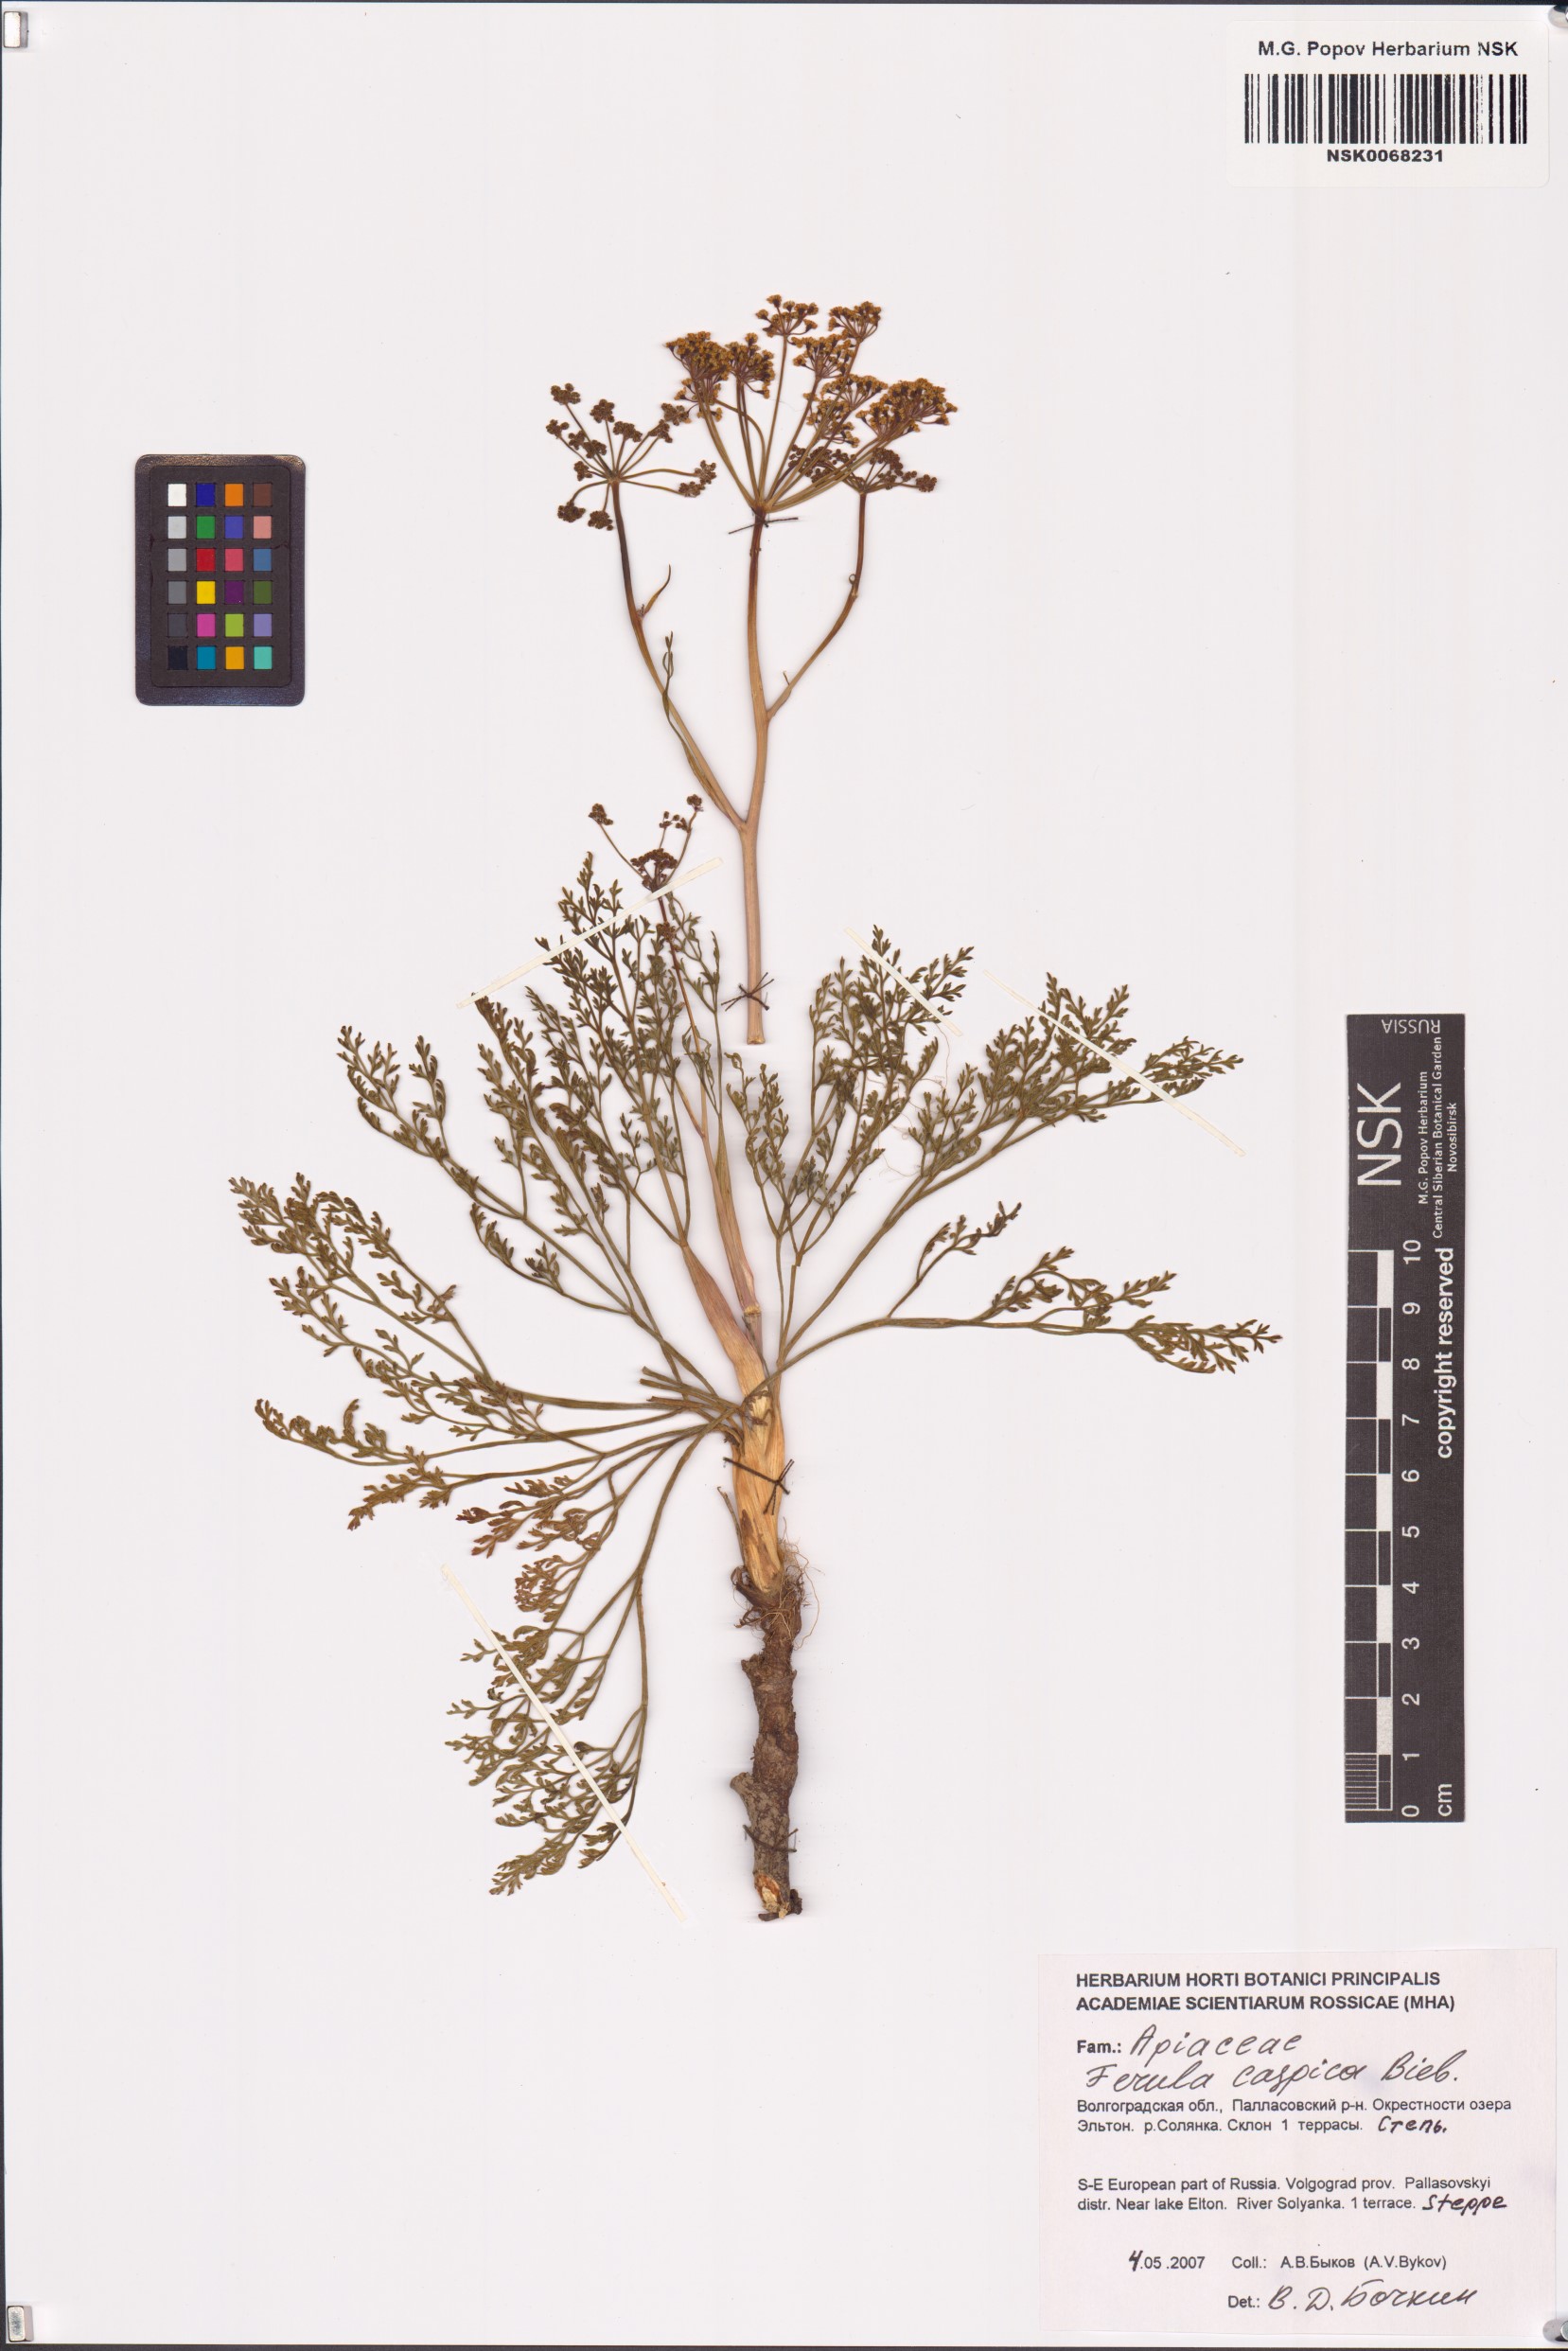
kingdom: Plantae
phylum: Tracheophyta
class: Magnoliopsida
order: Apiales
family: Apiaceae
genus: Ferula
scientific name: Ferula caspica
